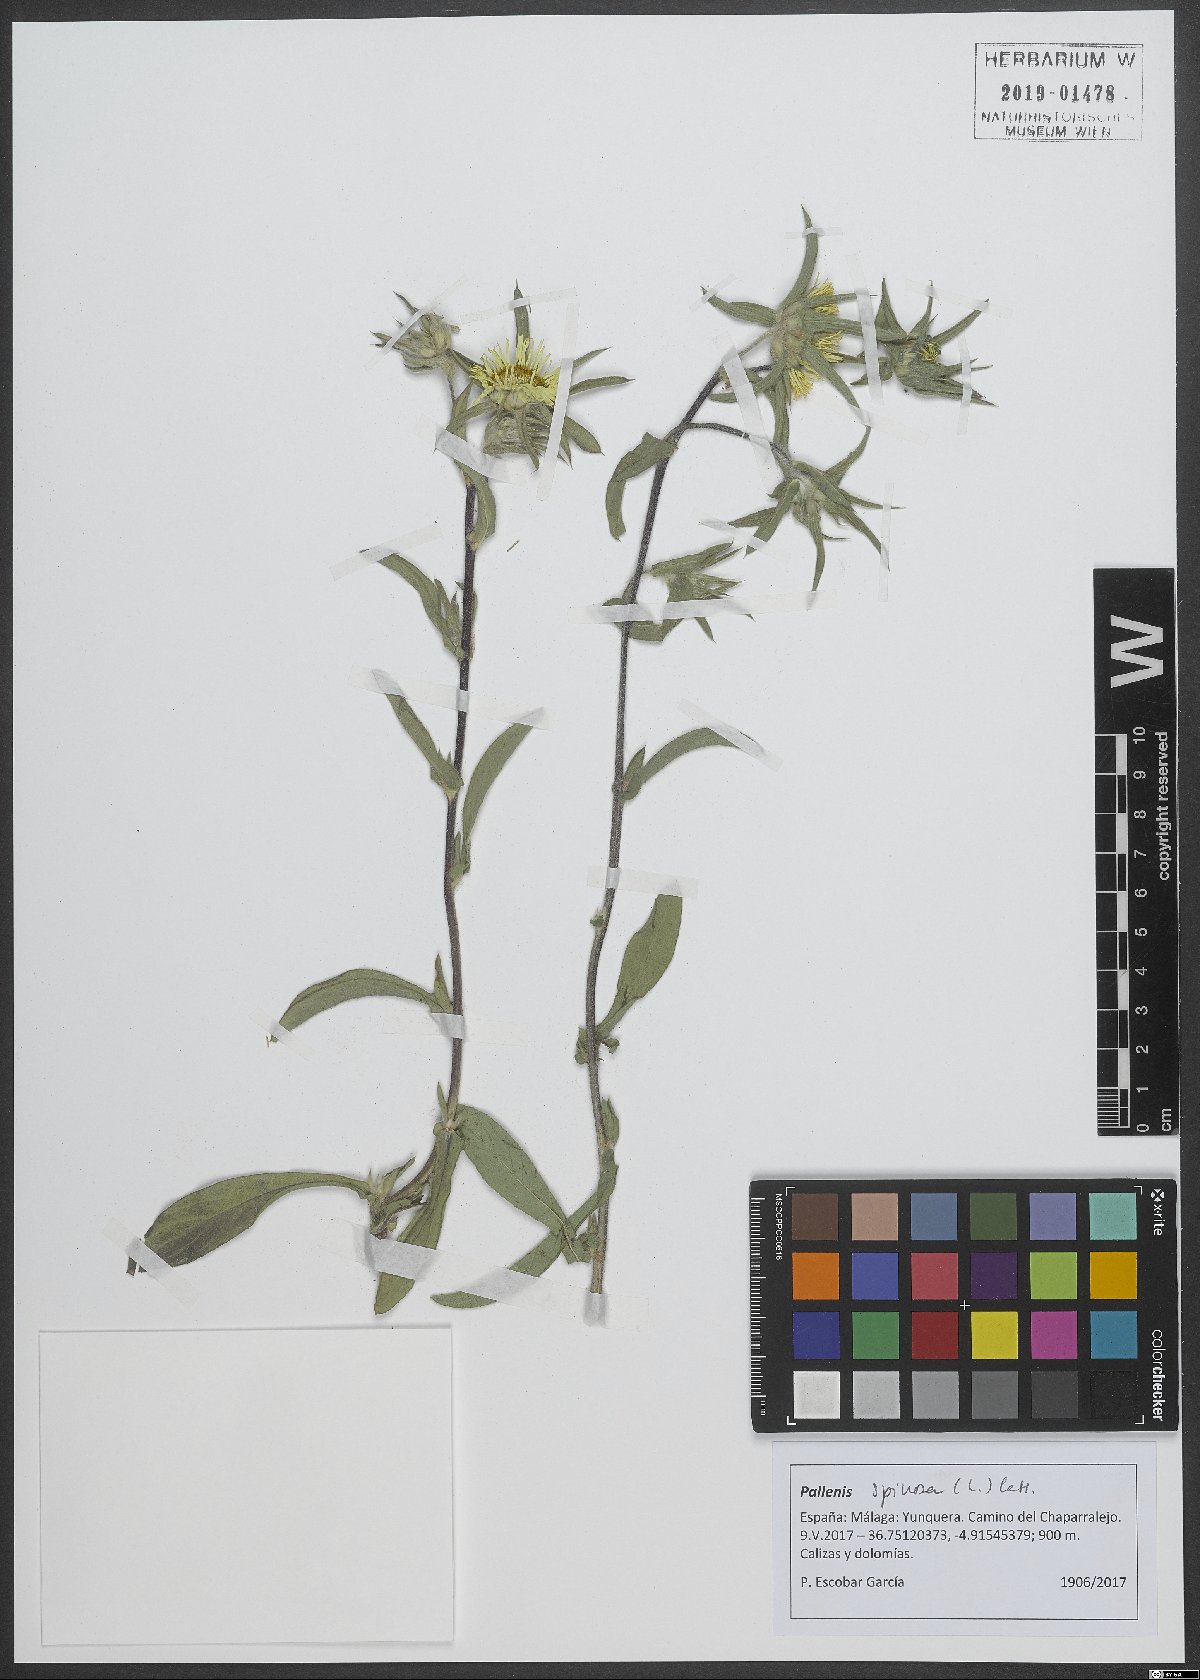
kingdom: Plantae
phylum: Tracheophyta
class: Magnoliopsida
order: Asterales
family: Asteraceae
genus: Pallenis
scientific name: Pallenis spinosa
